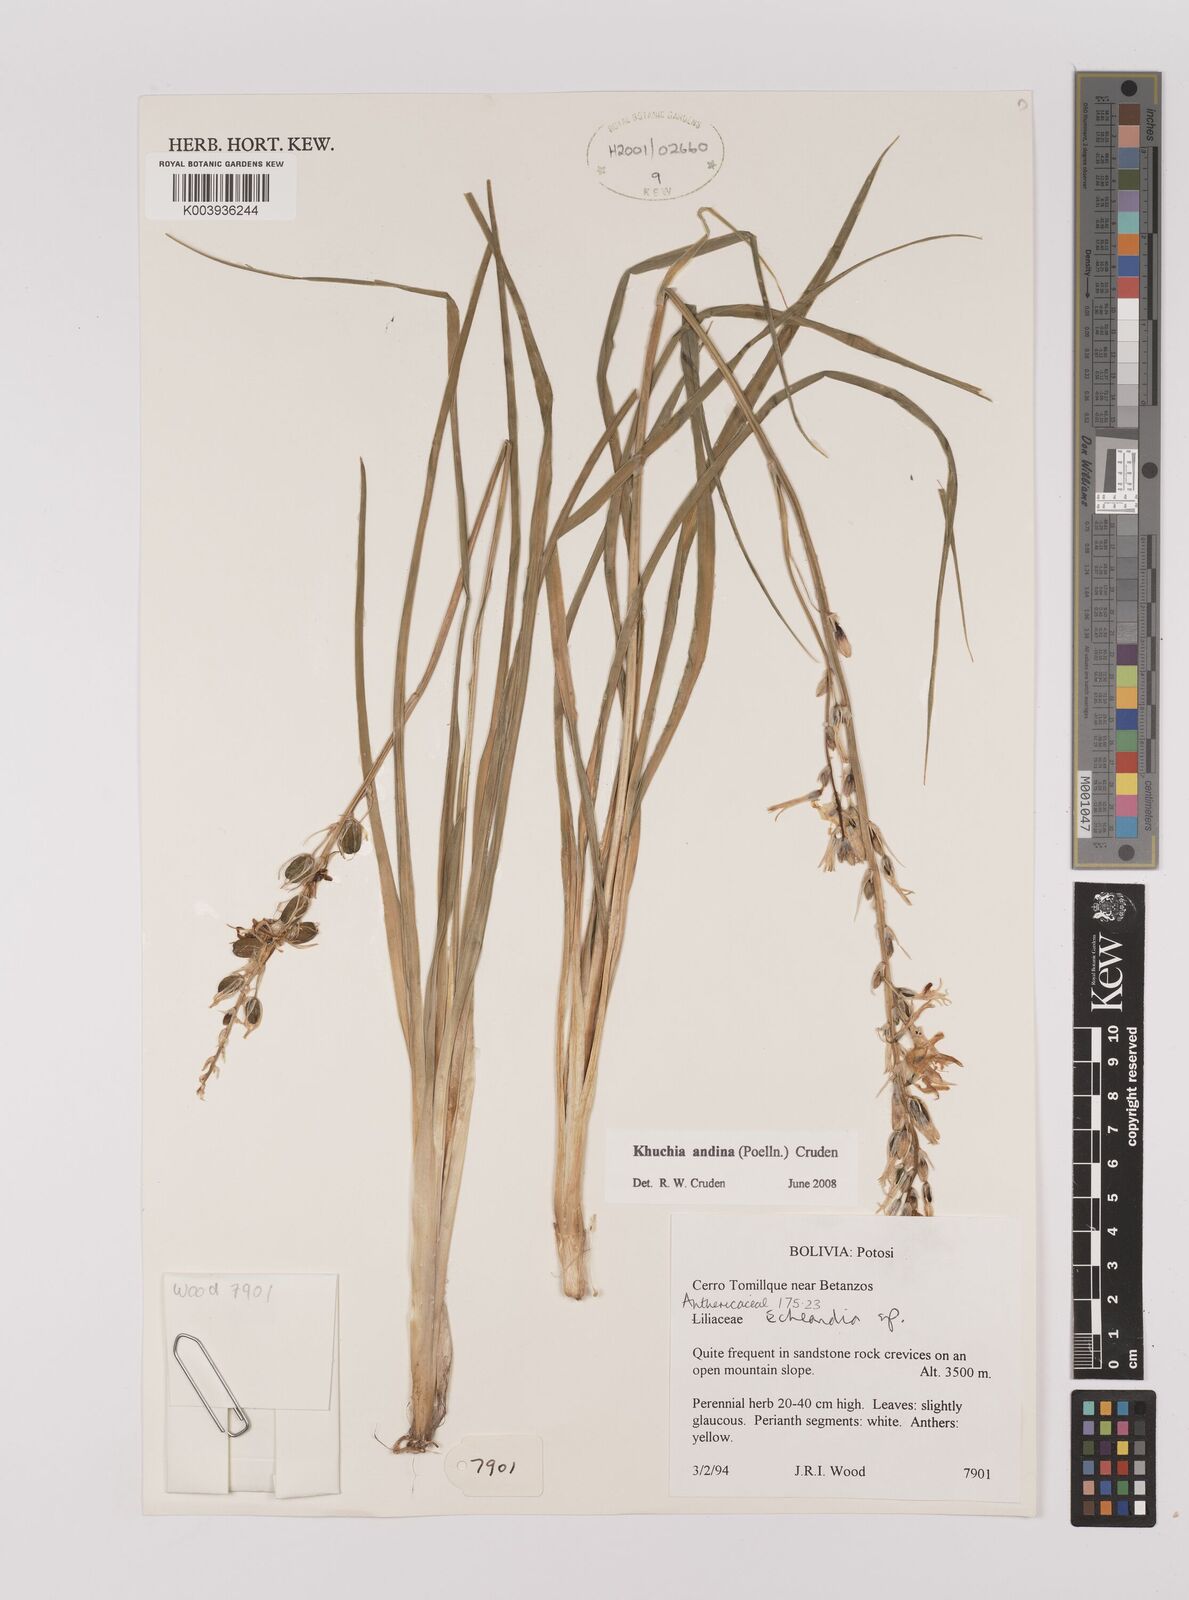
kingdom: Plantae
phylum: Tracheophyta
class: Liliopsida
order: Asparagales
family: Asparagaceae
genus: Echeandia
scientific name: Echeandia
